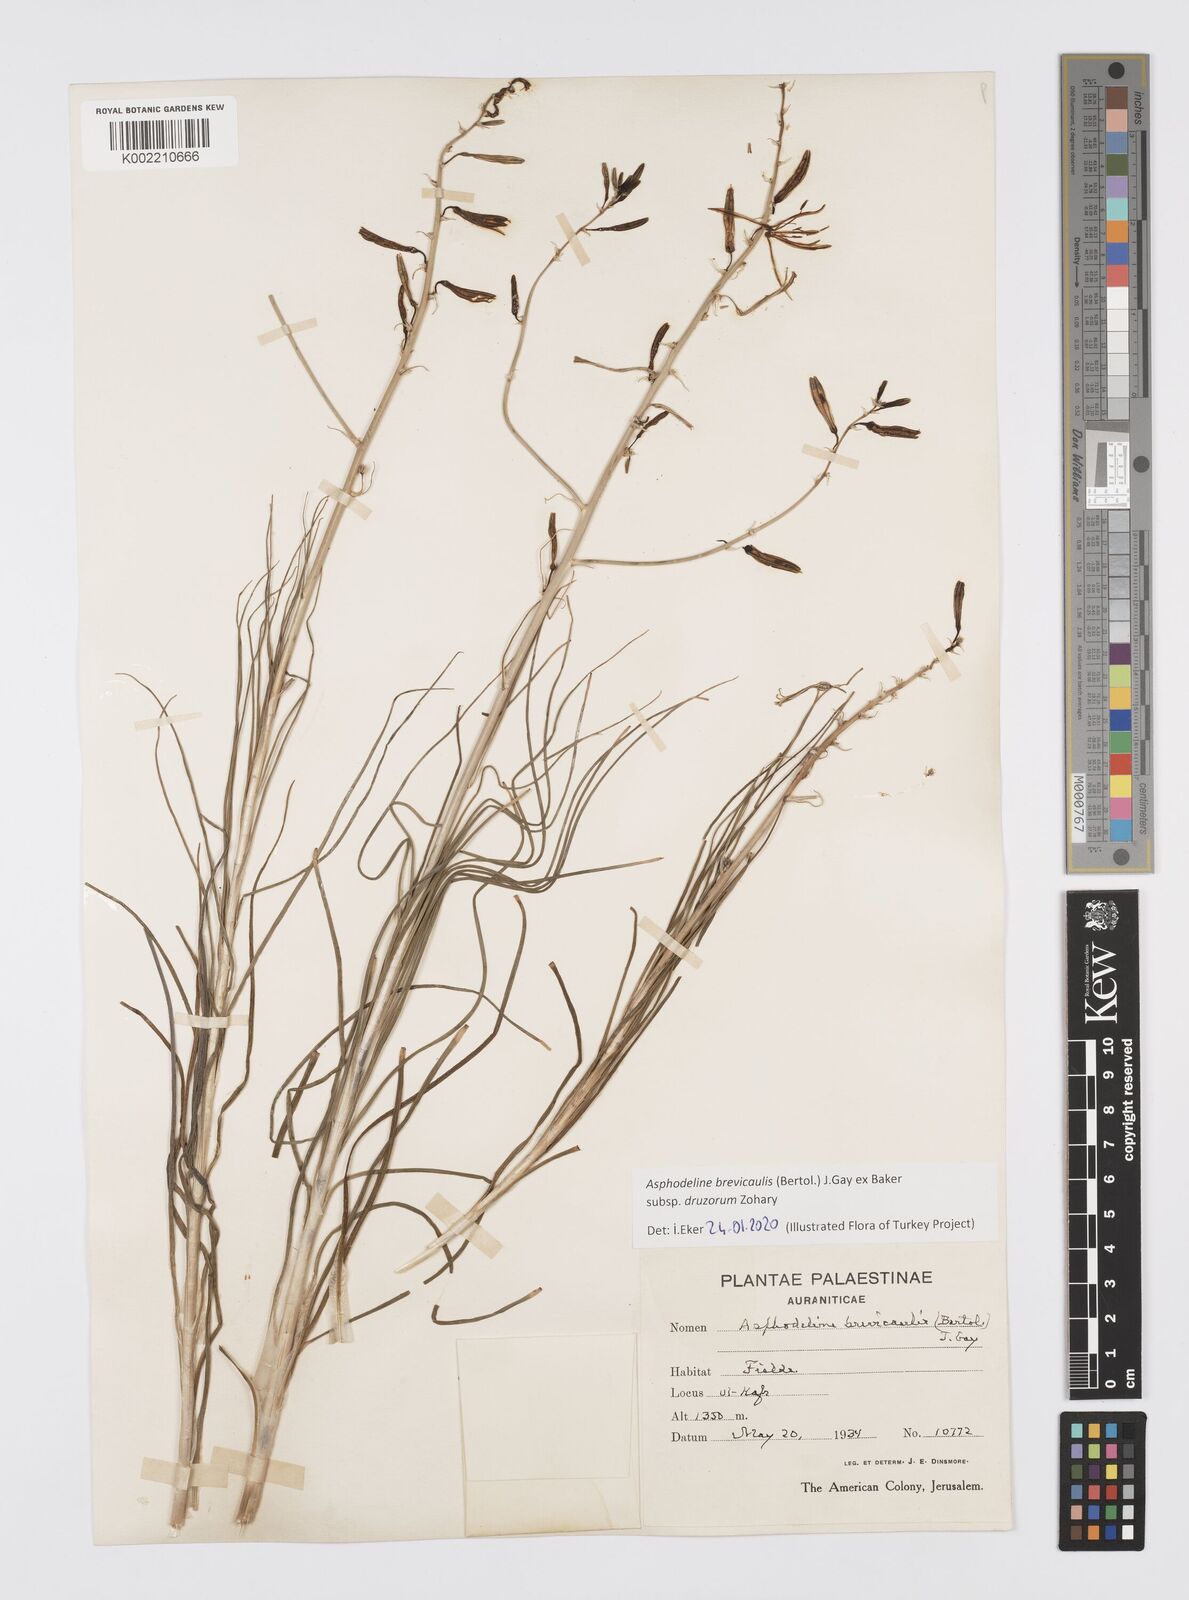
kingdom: Plantae
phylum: Tracheophyta
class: Liliopsida
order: Asparagales
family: Asphodelaceae
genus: Asphodeline
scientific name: Asphodeline brevicaulis
